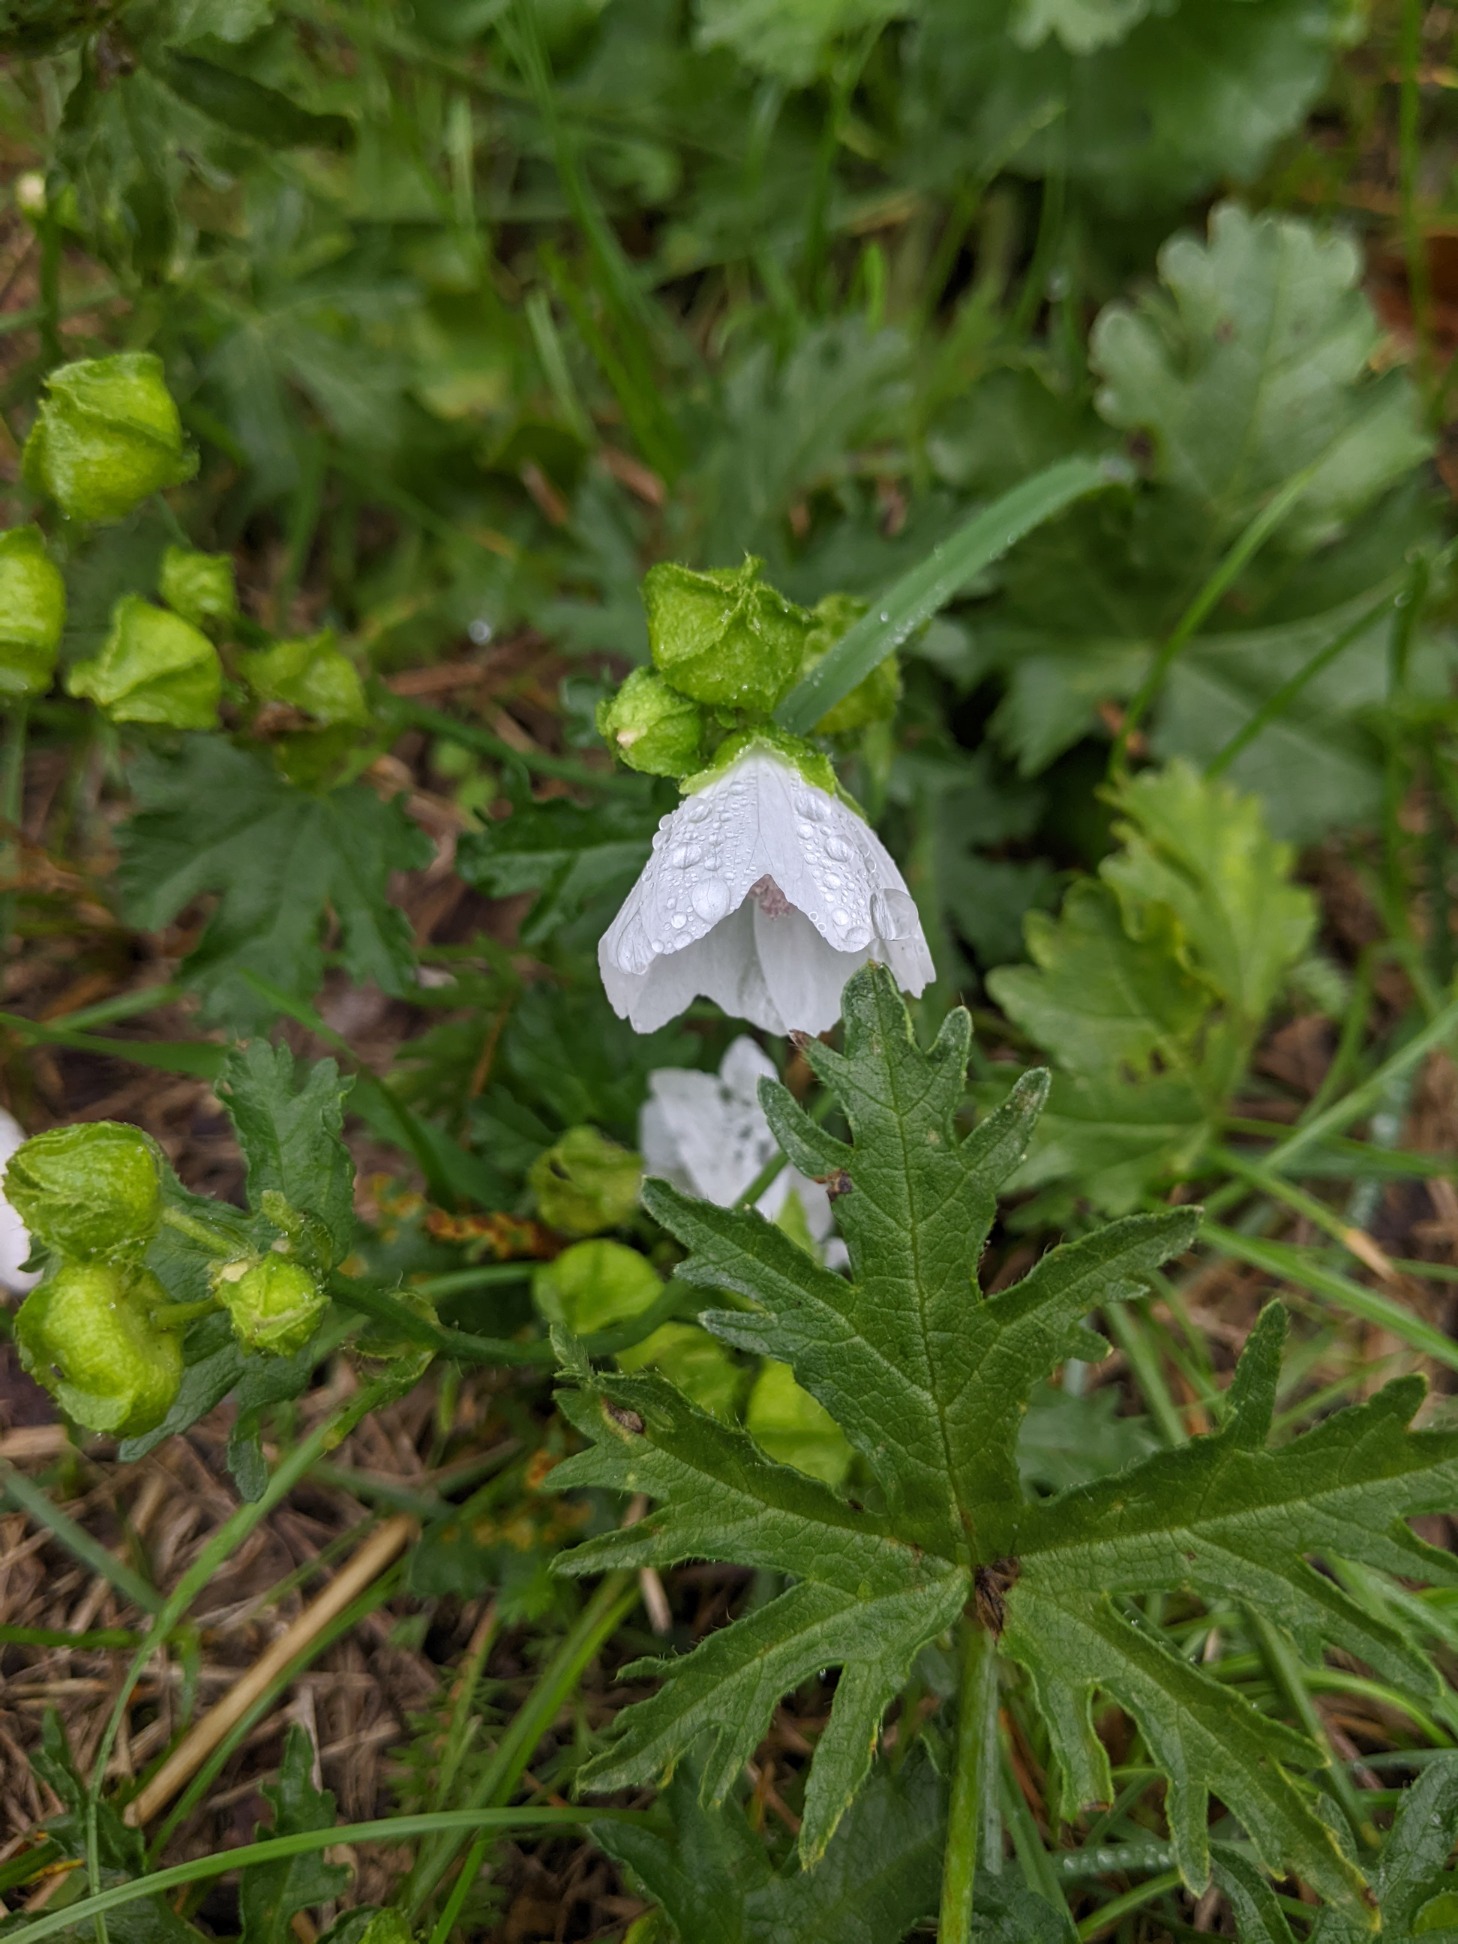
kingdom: Plantae
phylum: Tracheophyta
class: Magnoliopsida
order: Malvales
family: Malvaceae
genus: Malva
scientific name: Malva
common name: Katostslægten
